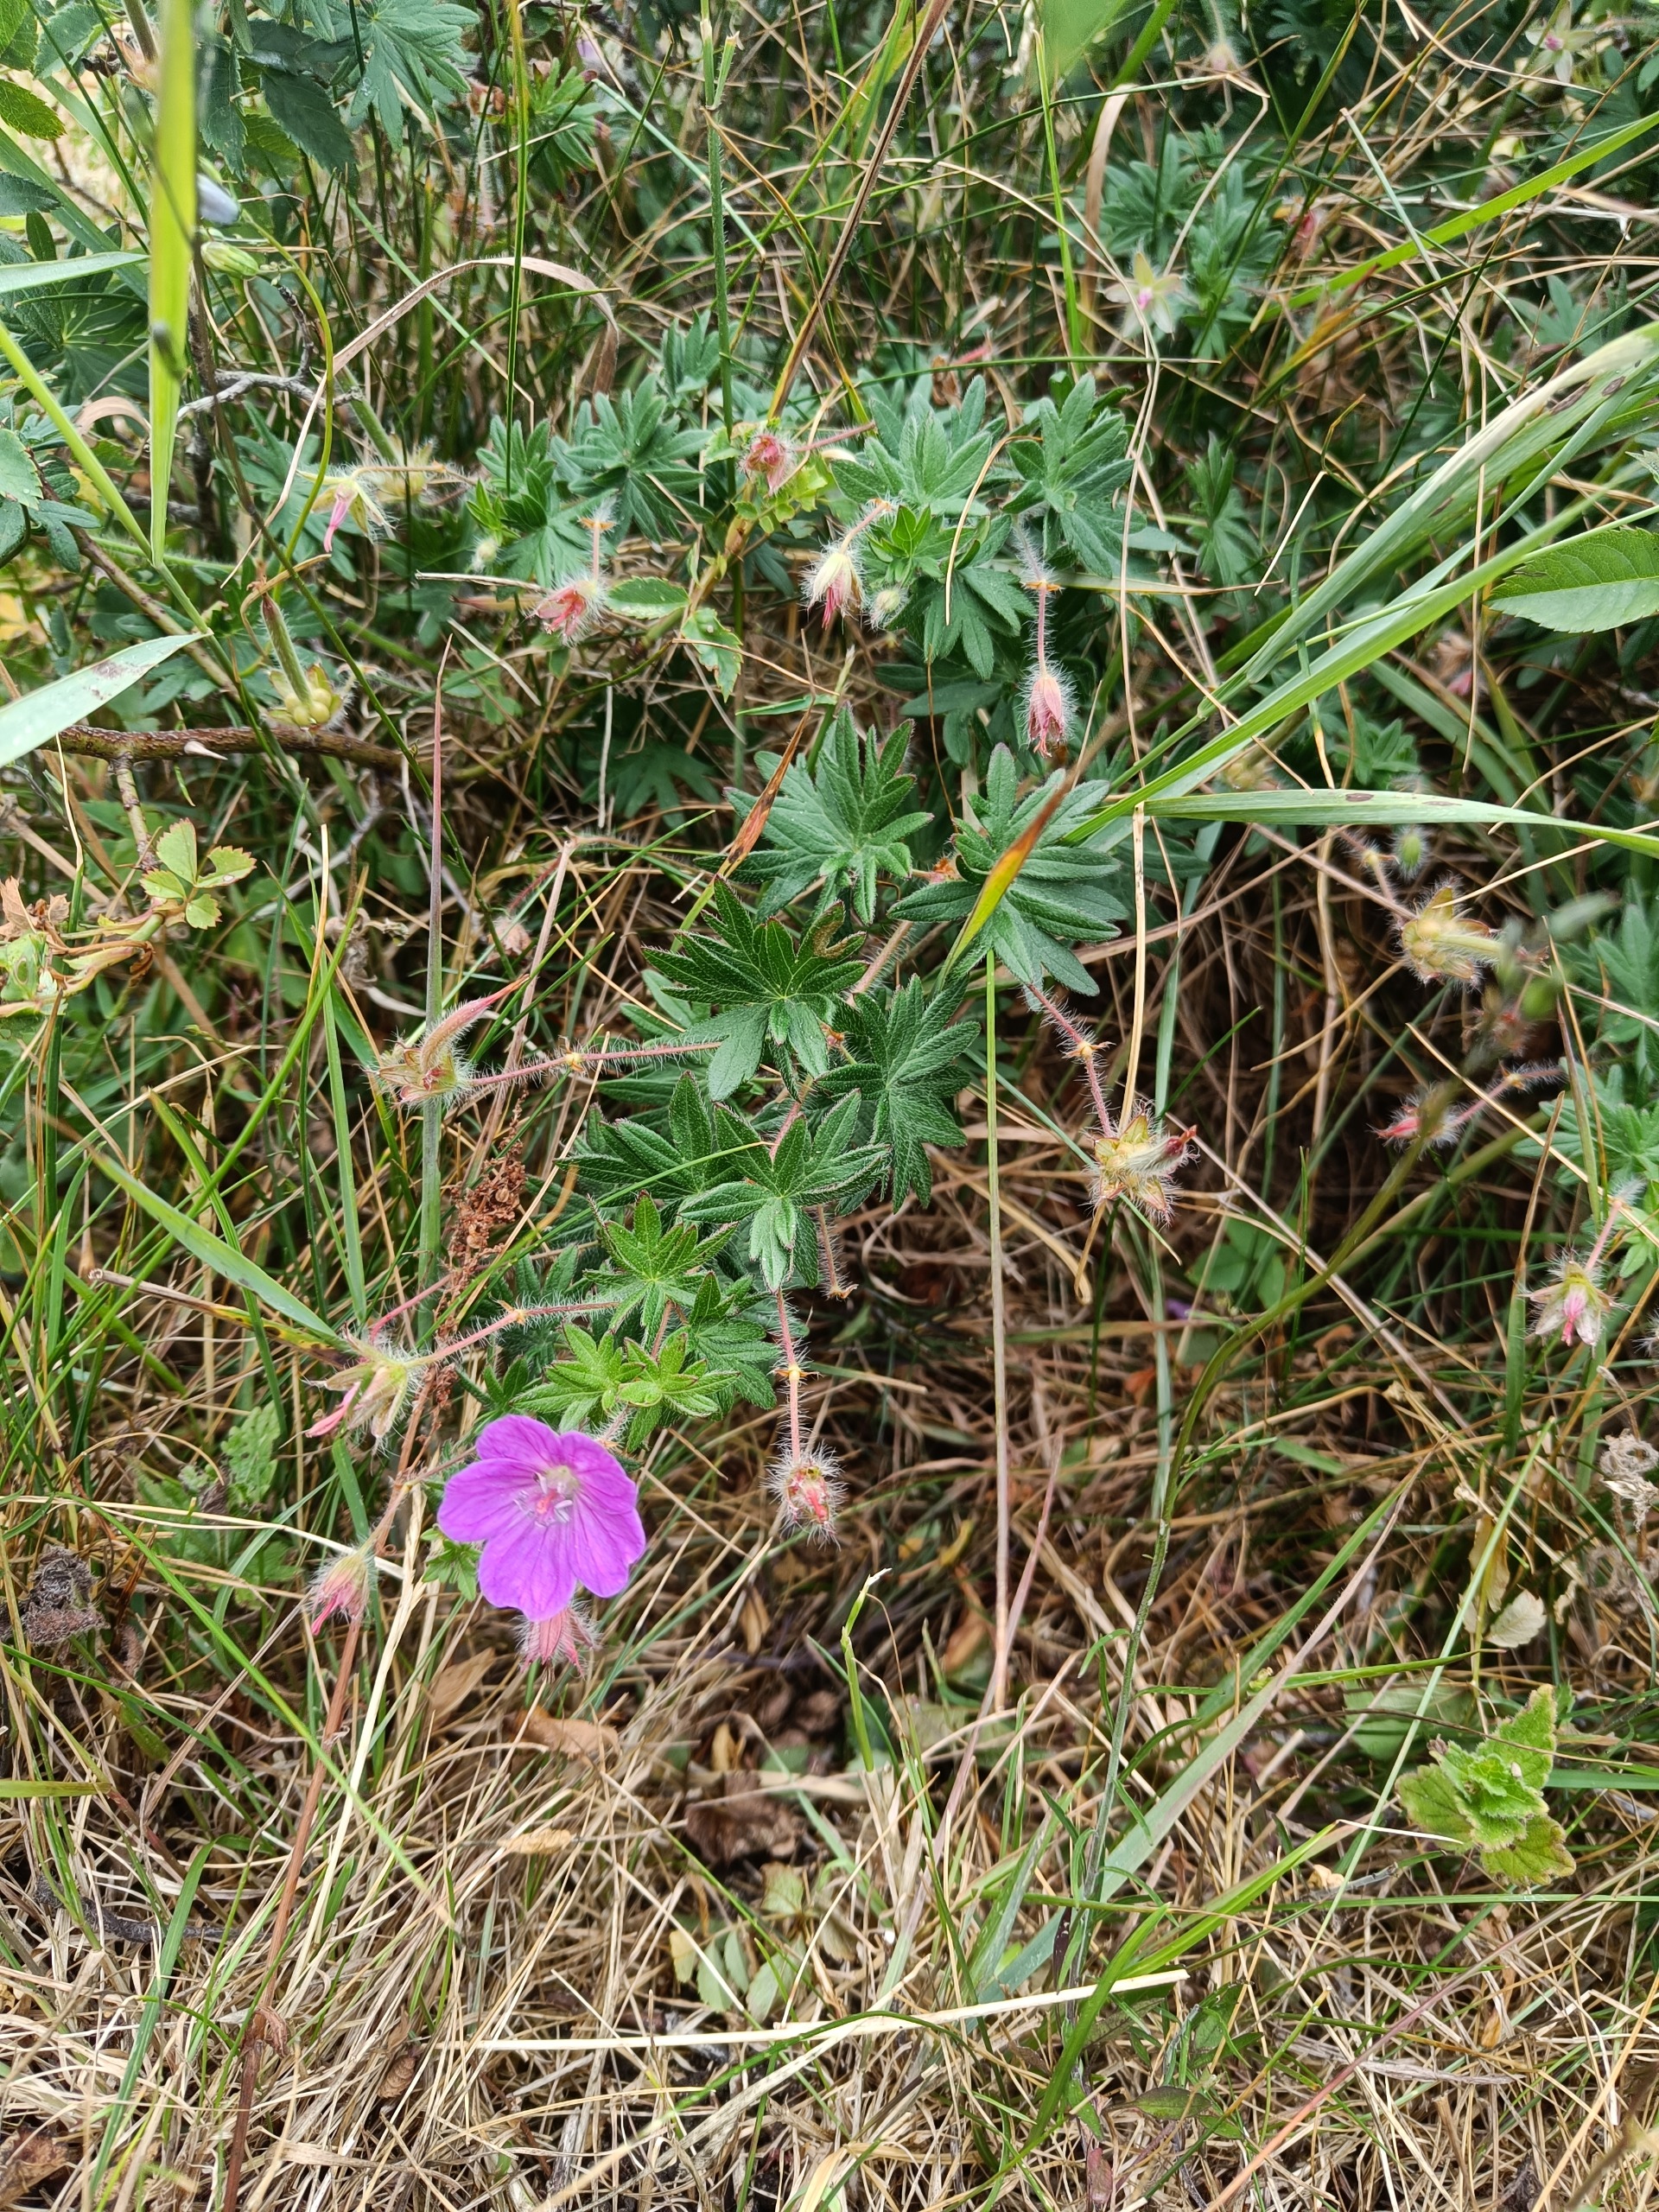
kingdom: Plantae
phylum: Tracheophyta
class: Magnoliopsida
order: Geraniales
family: Geraniaceae
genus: Geranium
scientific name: Geranium sanguineum
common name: Blodrød storkenæb
